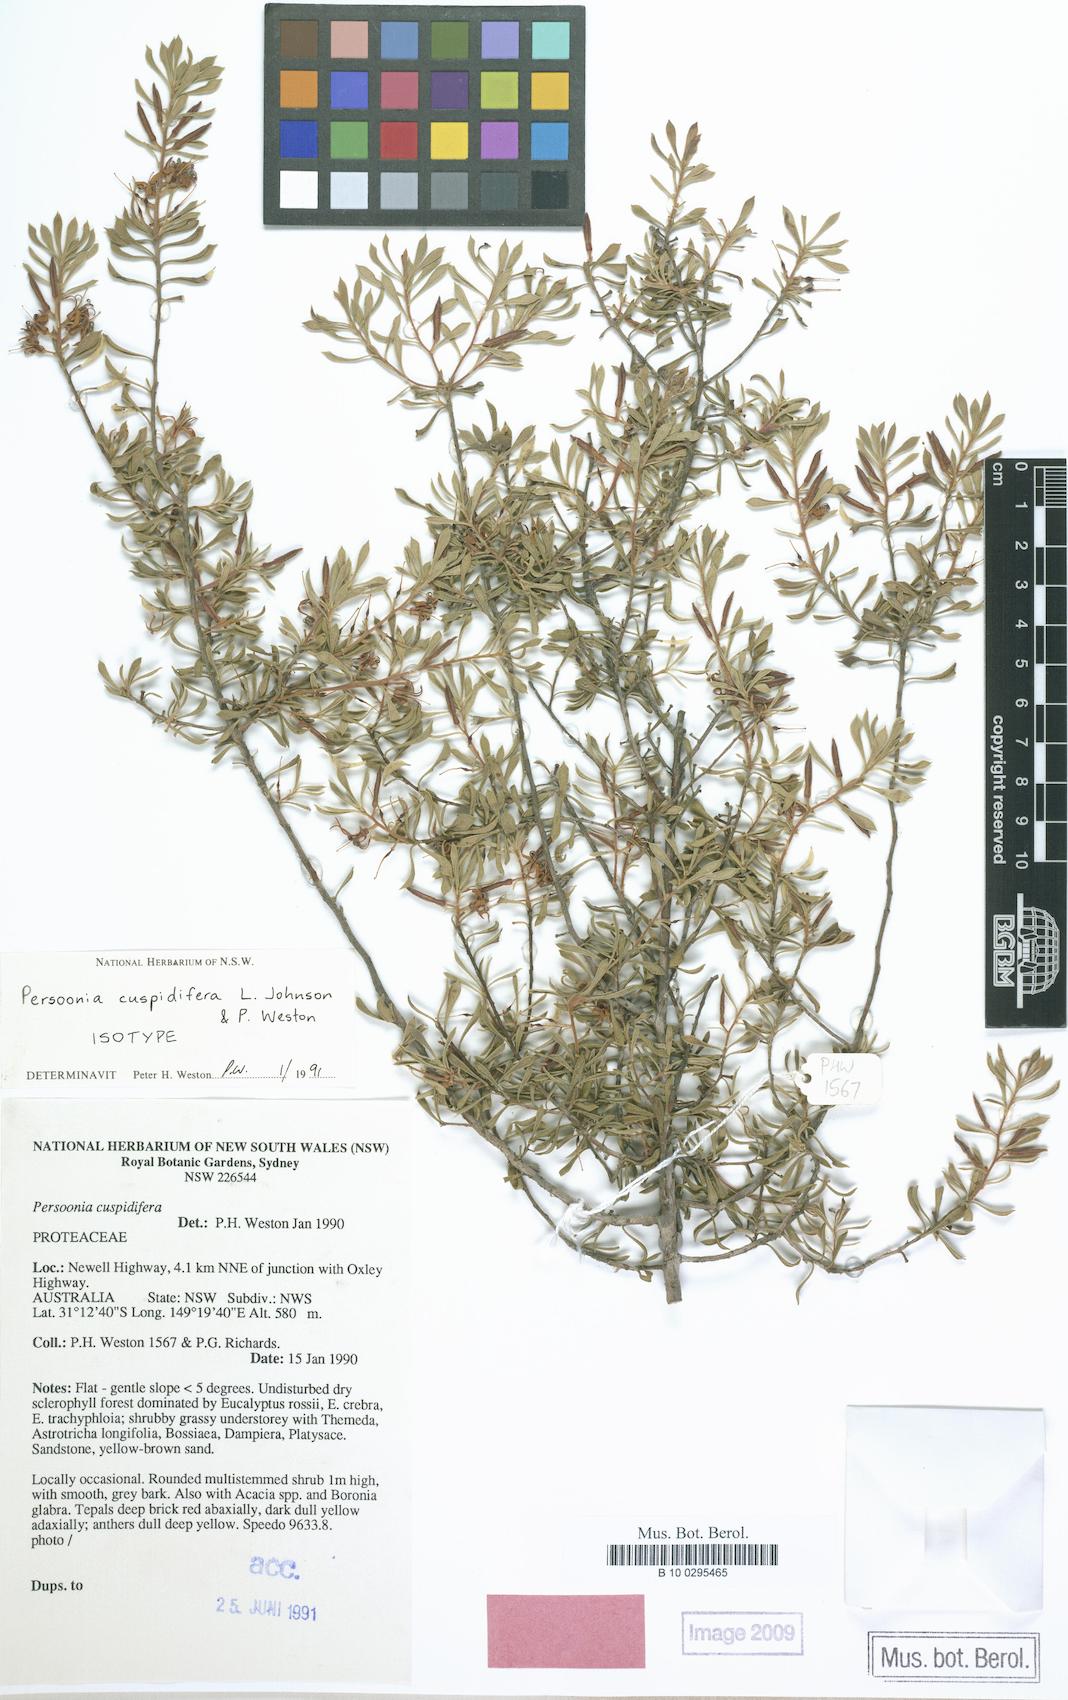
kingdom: Plantae
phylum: Tracheophyta
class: Magnoliopsida
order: Proteales
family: Proteaceae
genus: Persoonia
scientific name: Persoonia cuspidifera
